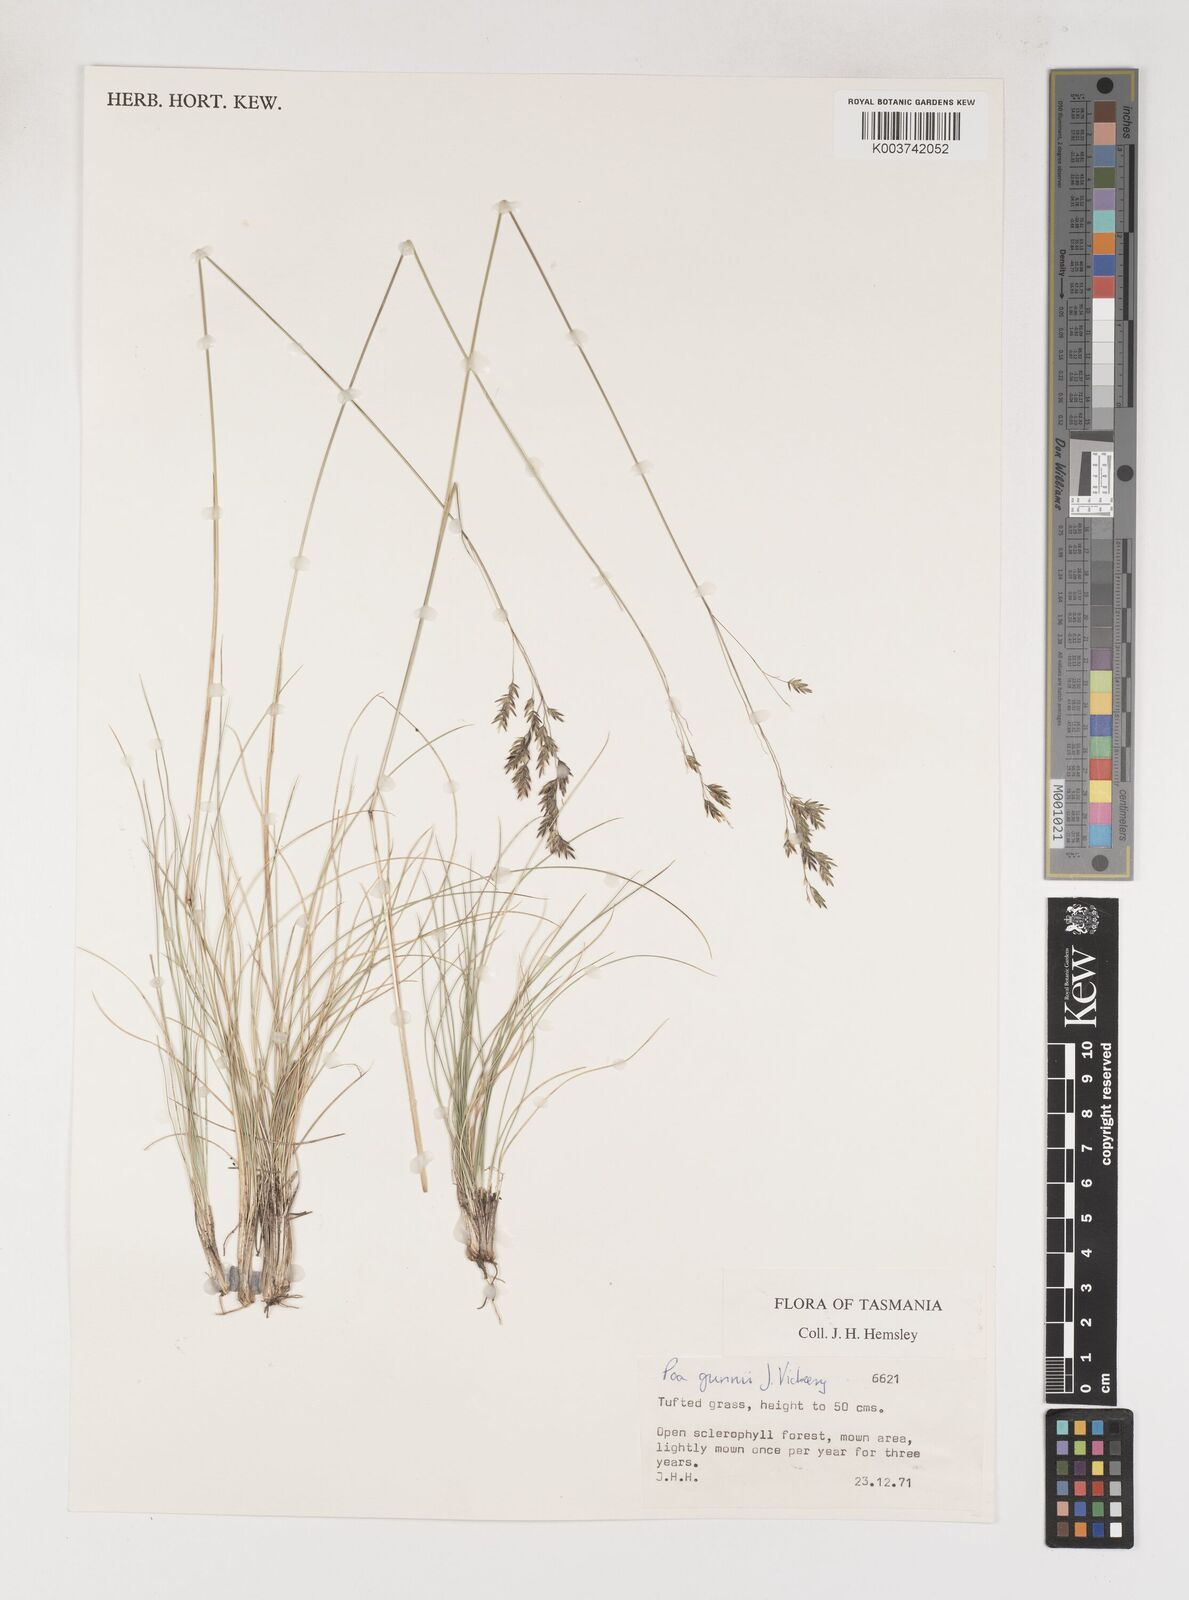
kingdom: Plantae
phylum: Tracheophyta
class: Liliopsida
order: Poales
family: Poaceae
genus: Poa
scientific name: Poa gunnii
